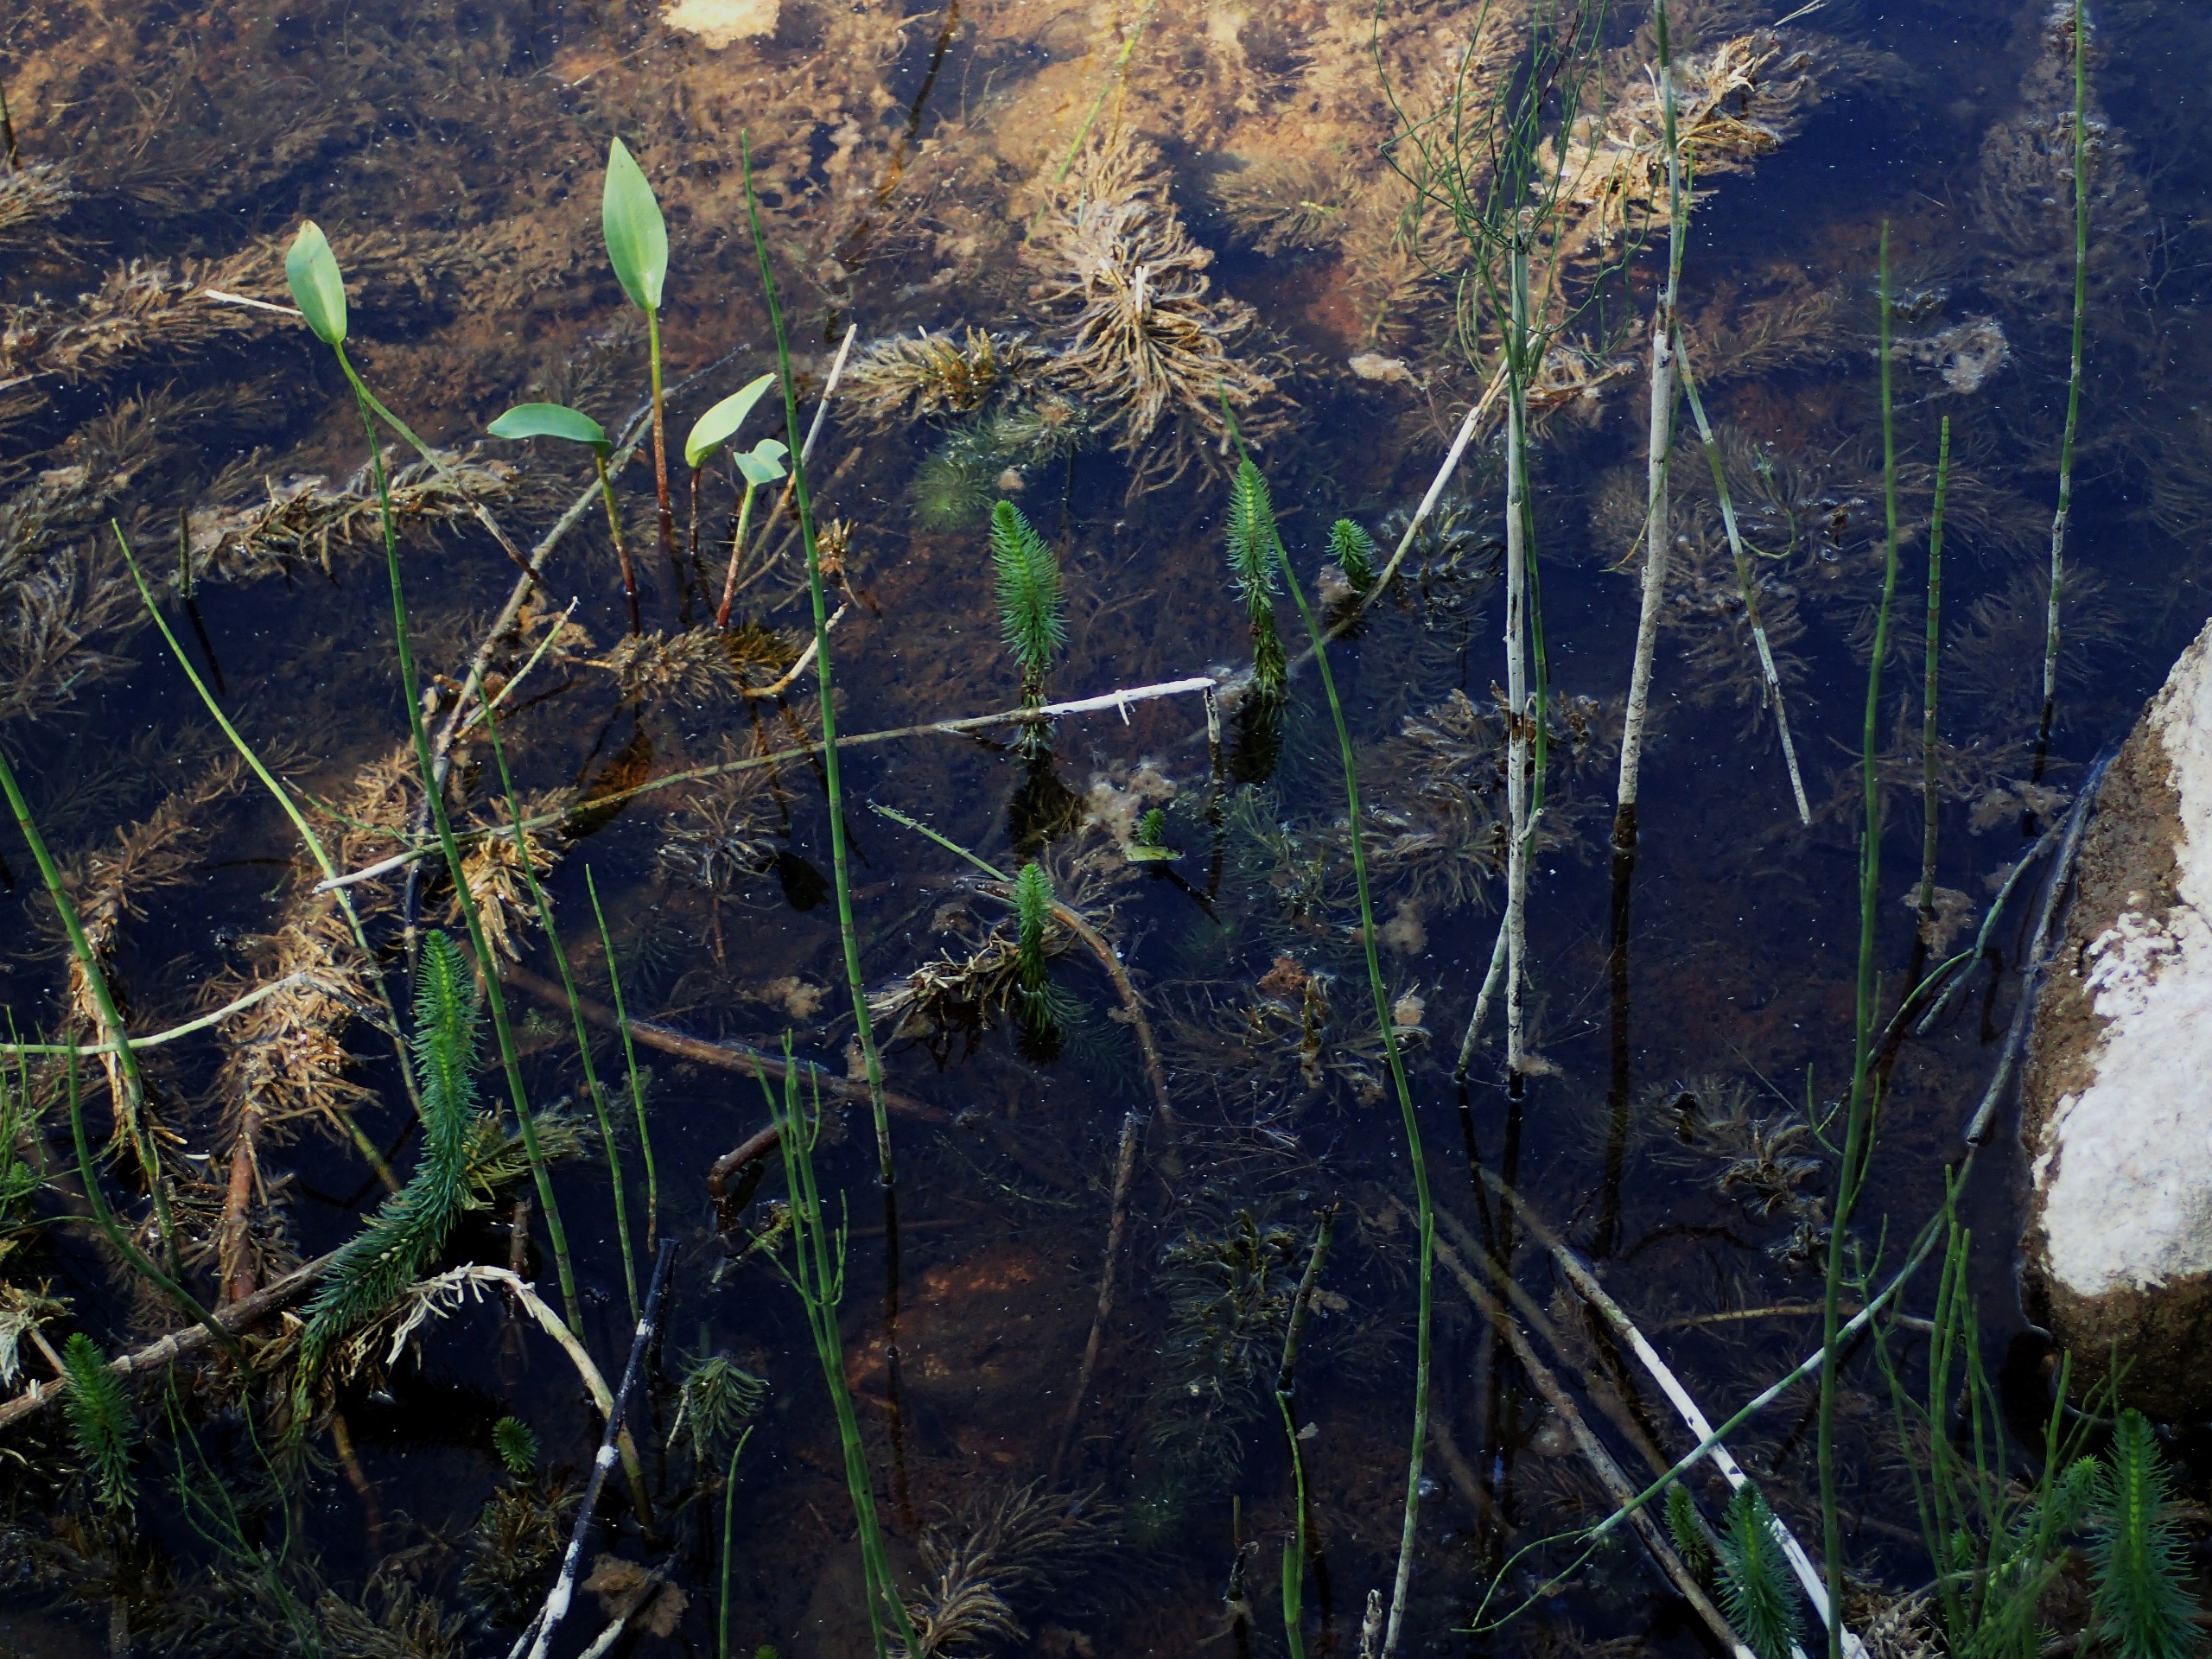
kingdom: Plantae
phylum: Tracheophyta
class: Magnoliopsida
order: Lamiales
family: Plantaginaceae
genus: Hippuris
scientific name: Hippuris vulgaris
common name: Vandspir
